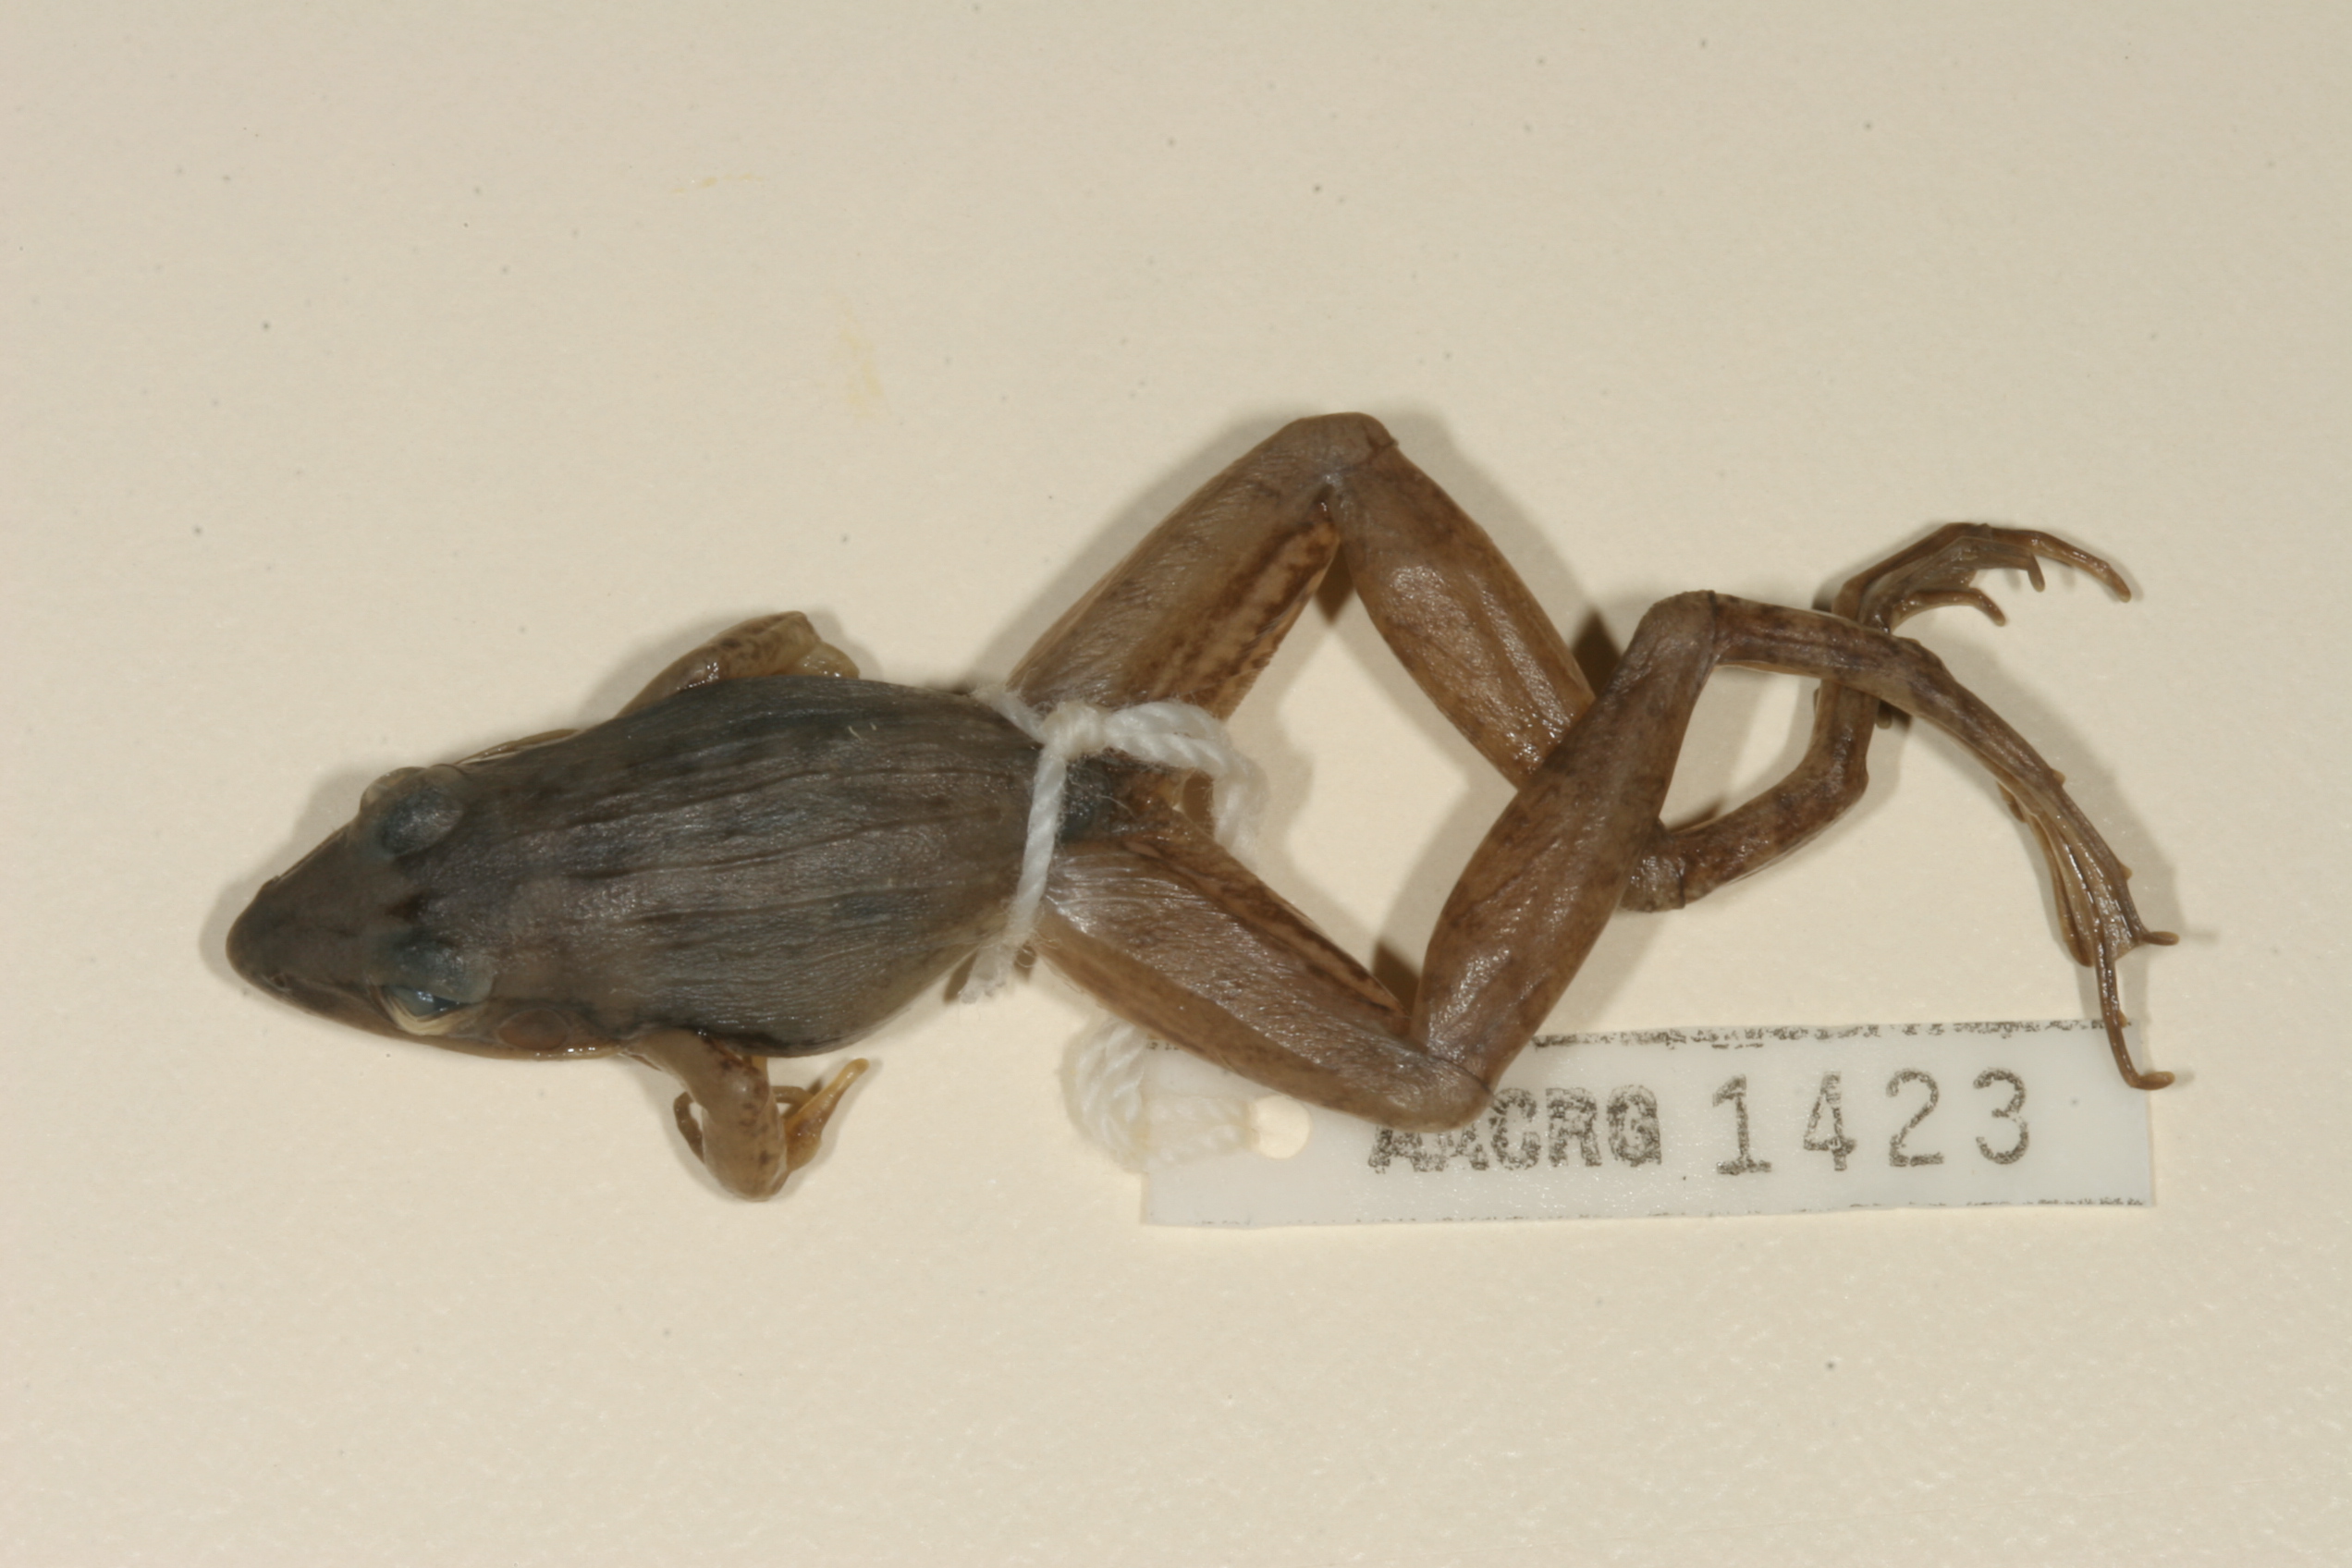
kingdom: Animalia
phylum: Chordata
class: Amphibia
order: Anura
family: Ptychadenidae
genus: Ptychadena
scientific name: Ptychadena anchietae
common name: Anchieta's ridged frog
